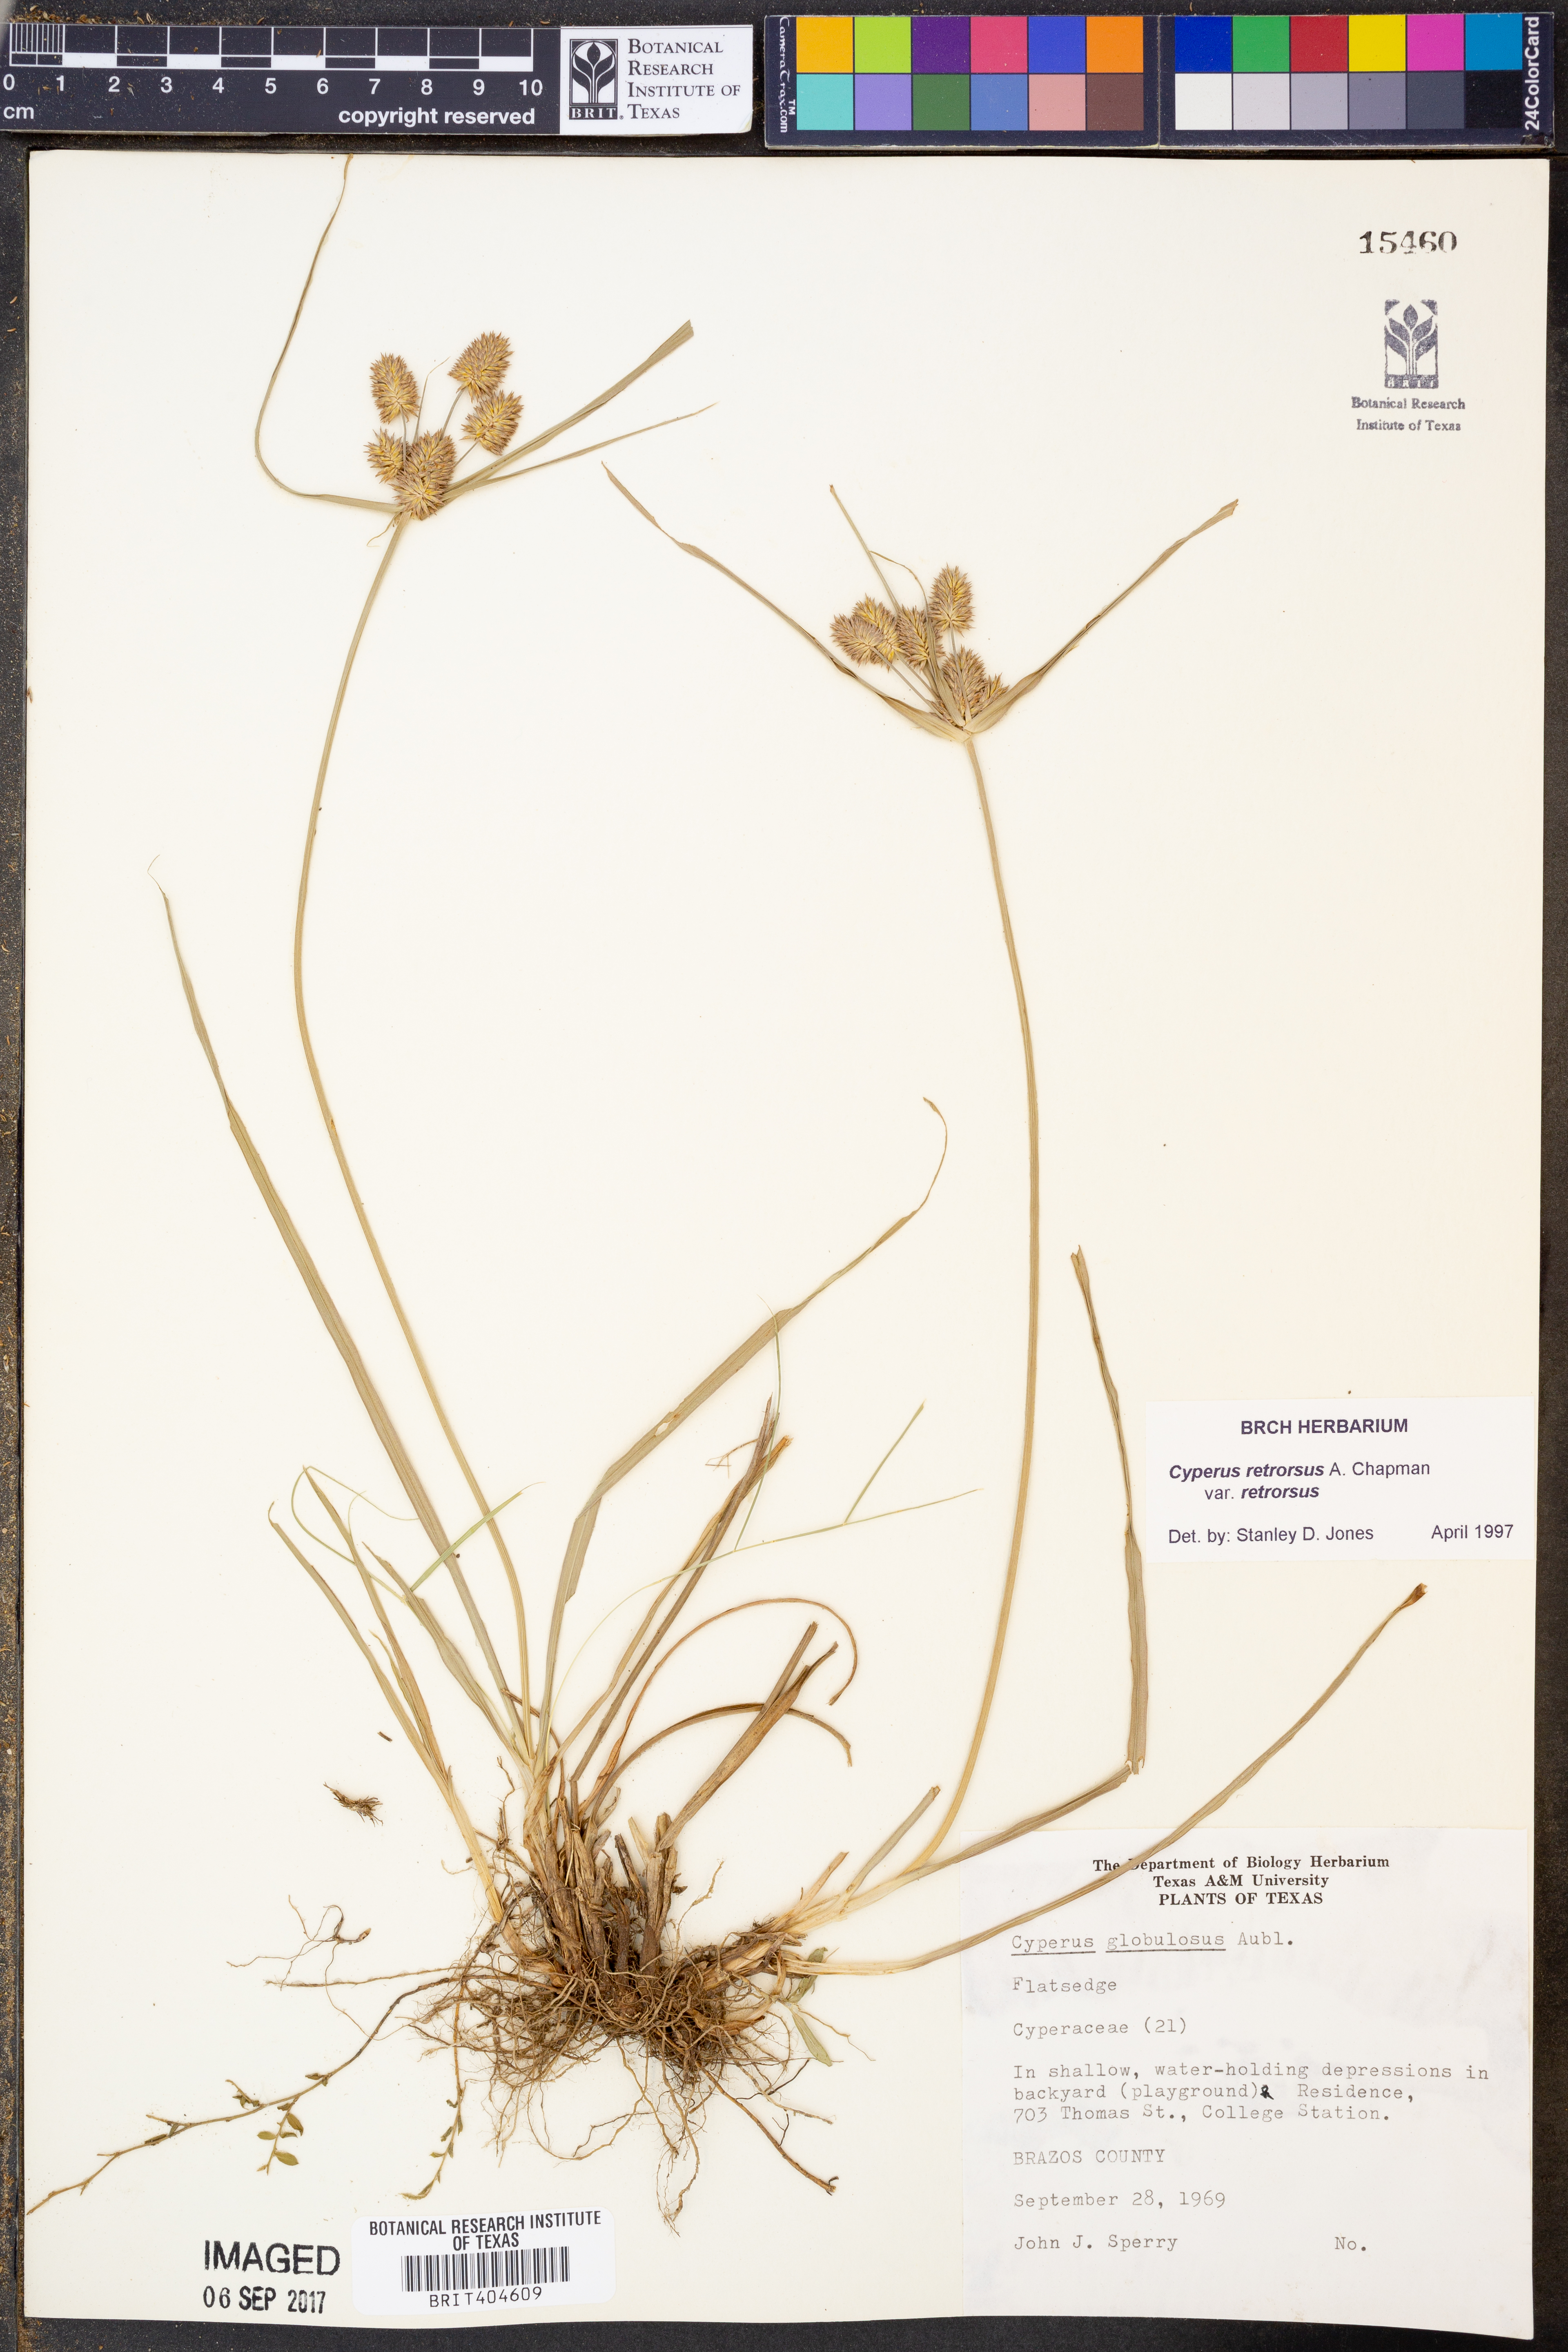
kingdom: Plantae
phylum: Tracheophyta
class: Liliopsida
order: Poales
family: Cyperaceae
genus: Cyperus
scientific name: Cyperus retrorsus
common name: Pinebarren flat sedge
